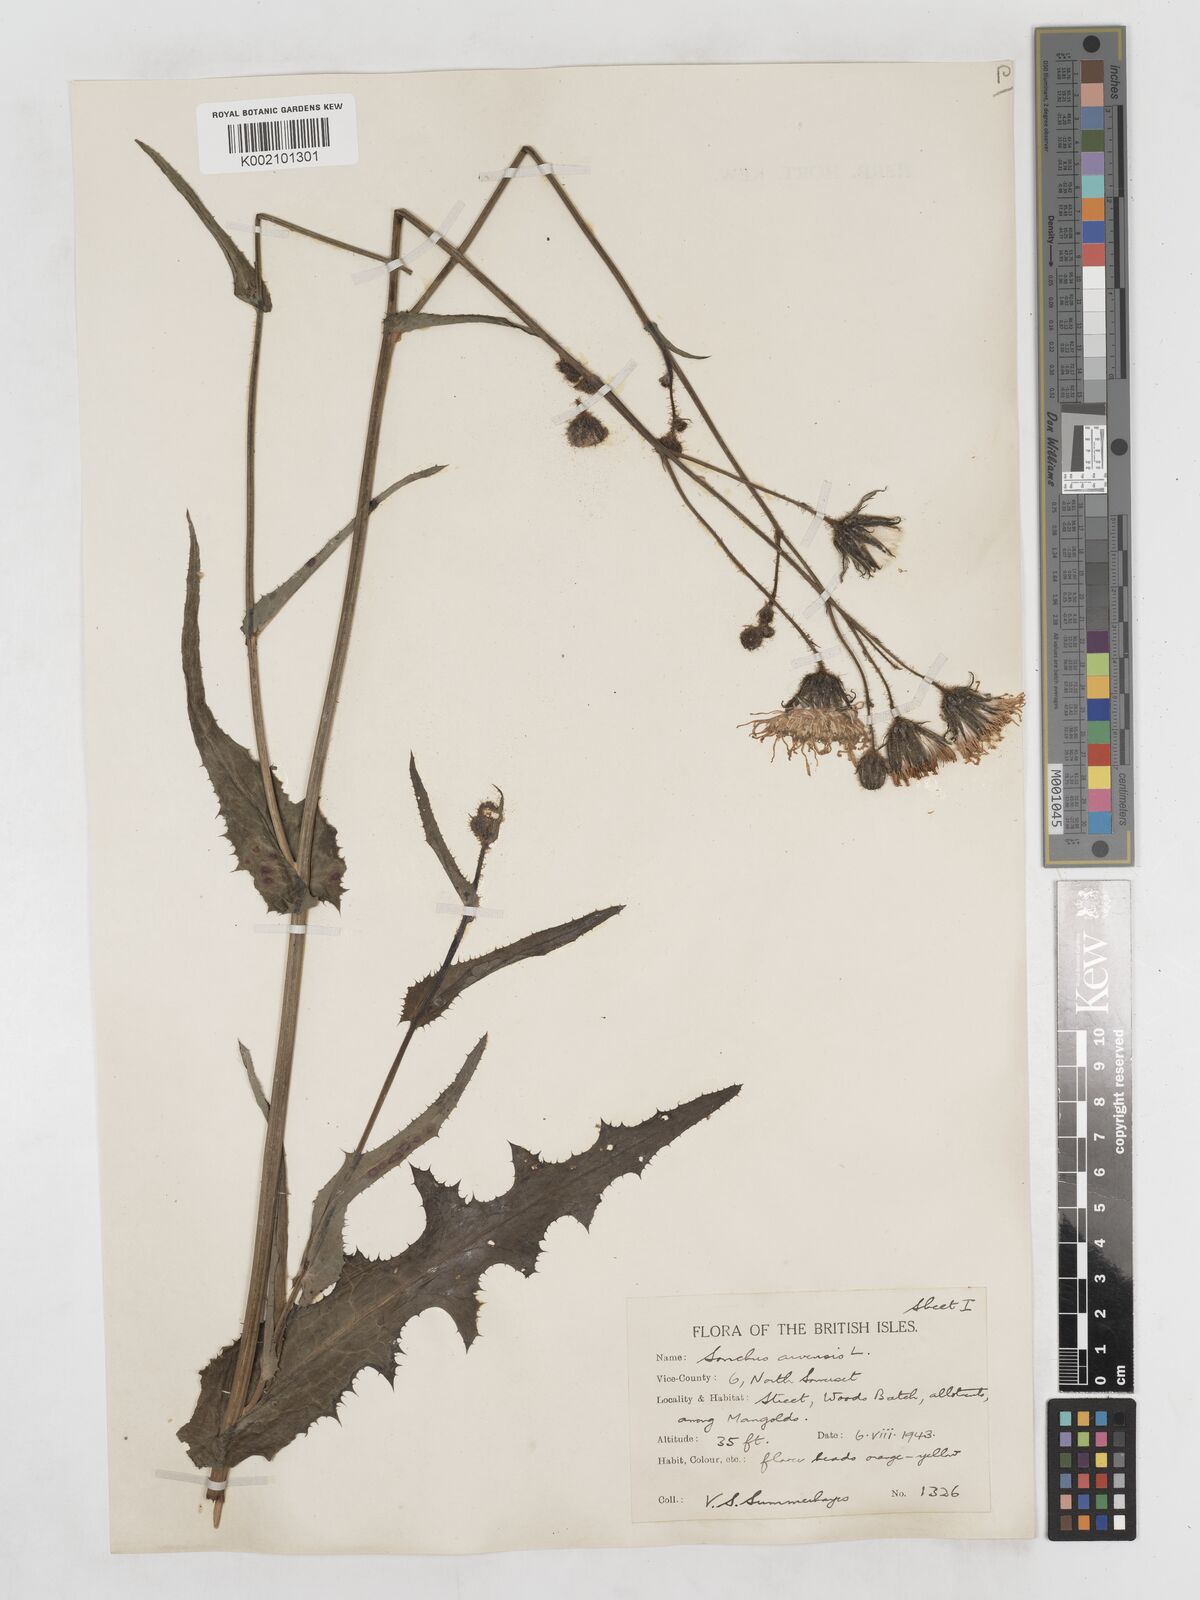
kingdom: Plantae
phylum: Tracheophyta
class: Magnoliopsida
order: Asterales
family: Asteraceae
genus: Sonchus
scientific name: Sonchus arvensis
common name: Perennial sow-thistle
